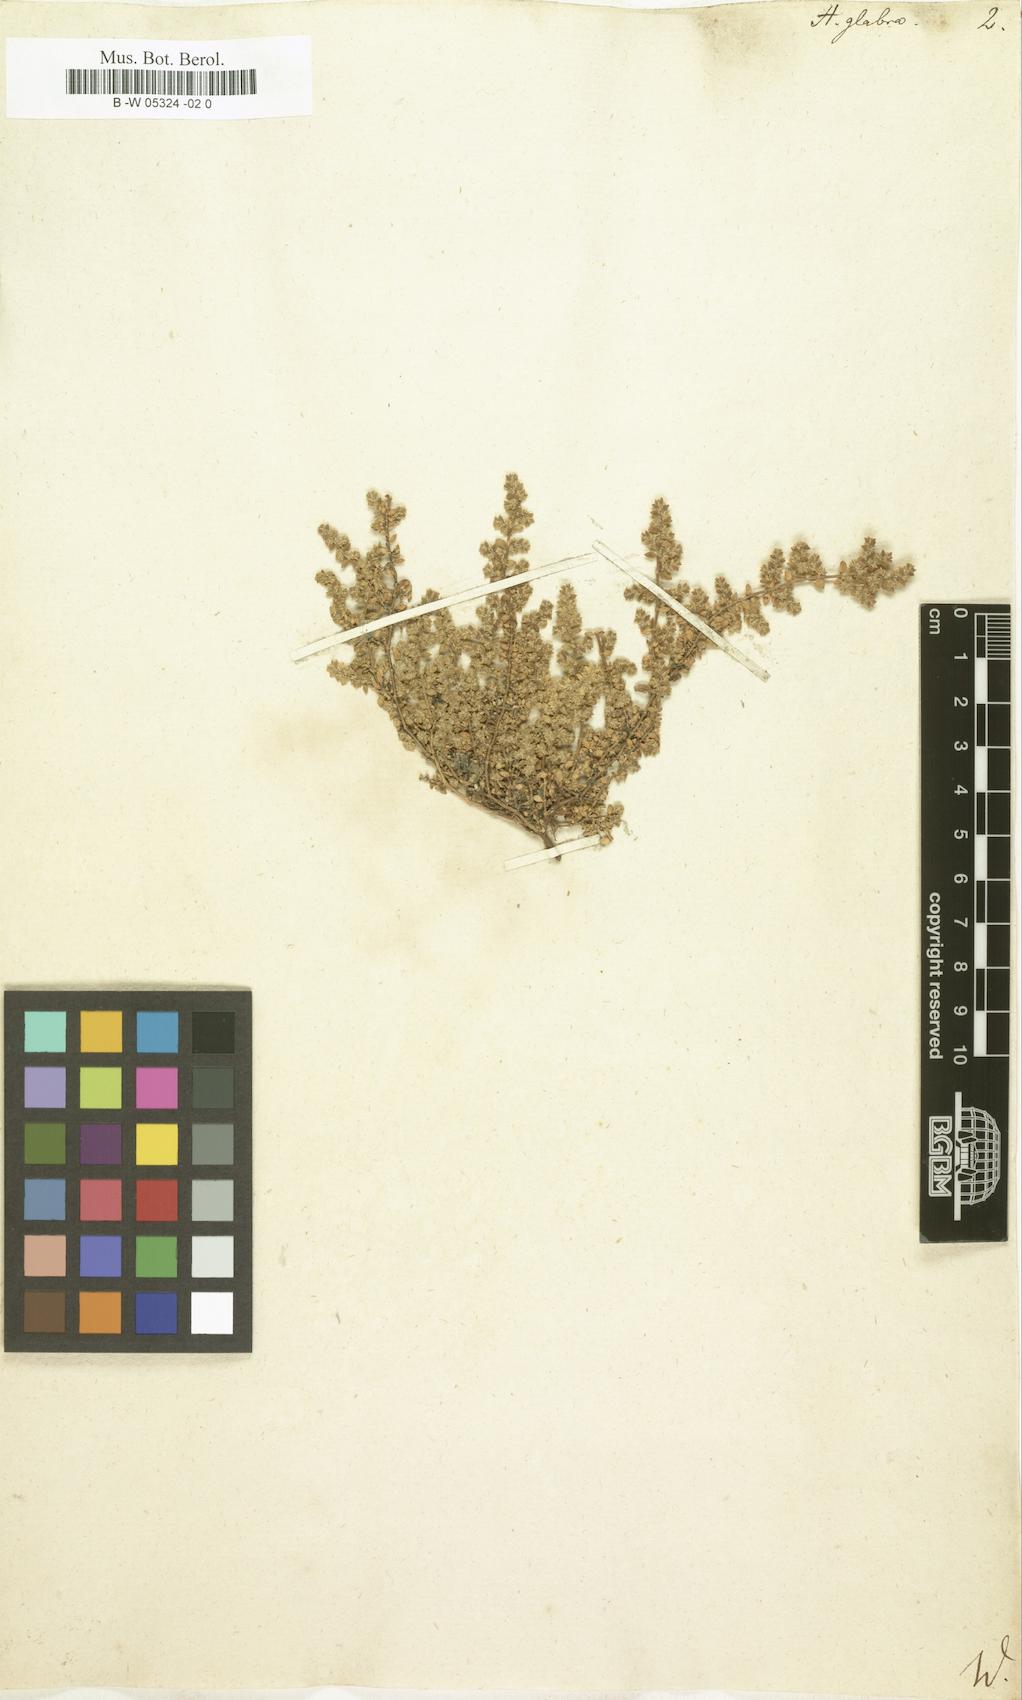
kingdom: Plantae
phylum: Tracheophyta
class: Magnoliopsida
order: Caryophyllales
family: Caryophyllaceae
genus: Herniaria
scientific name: Herniaria glabra
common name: Smooth rupturewort
